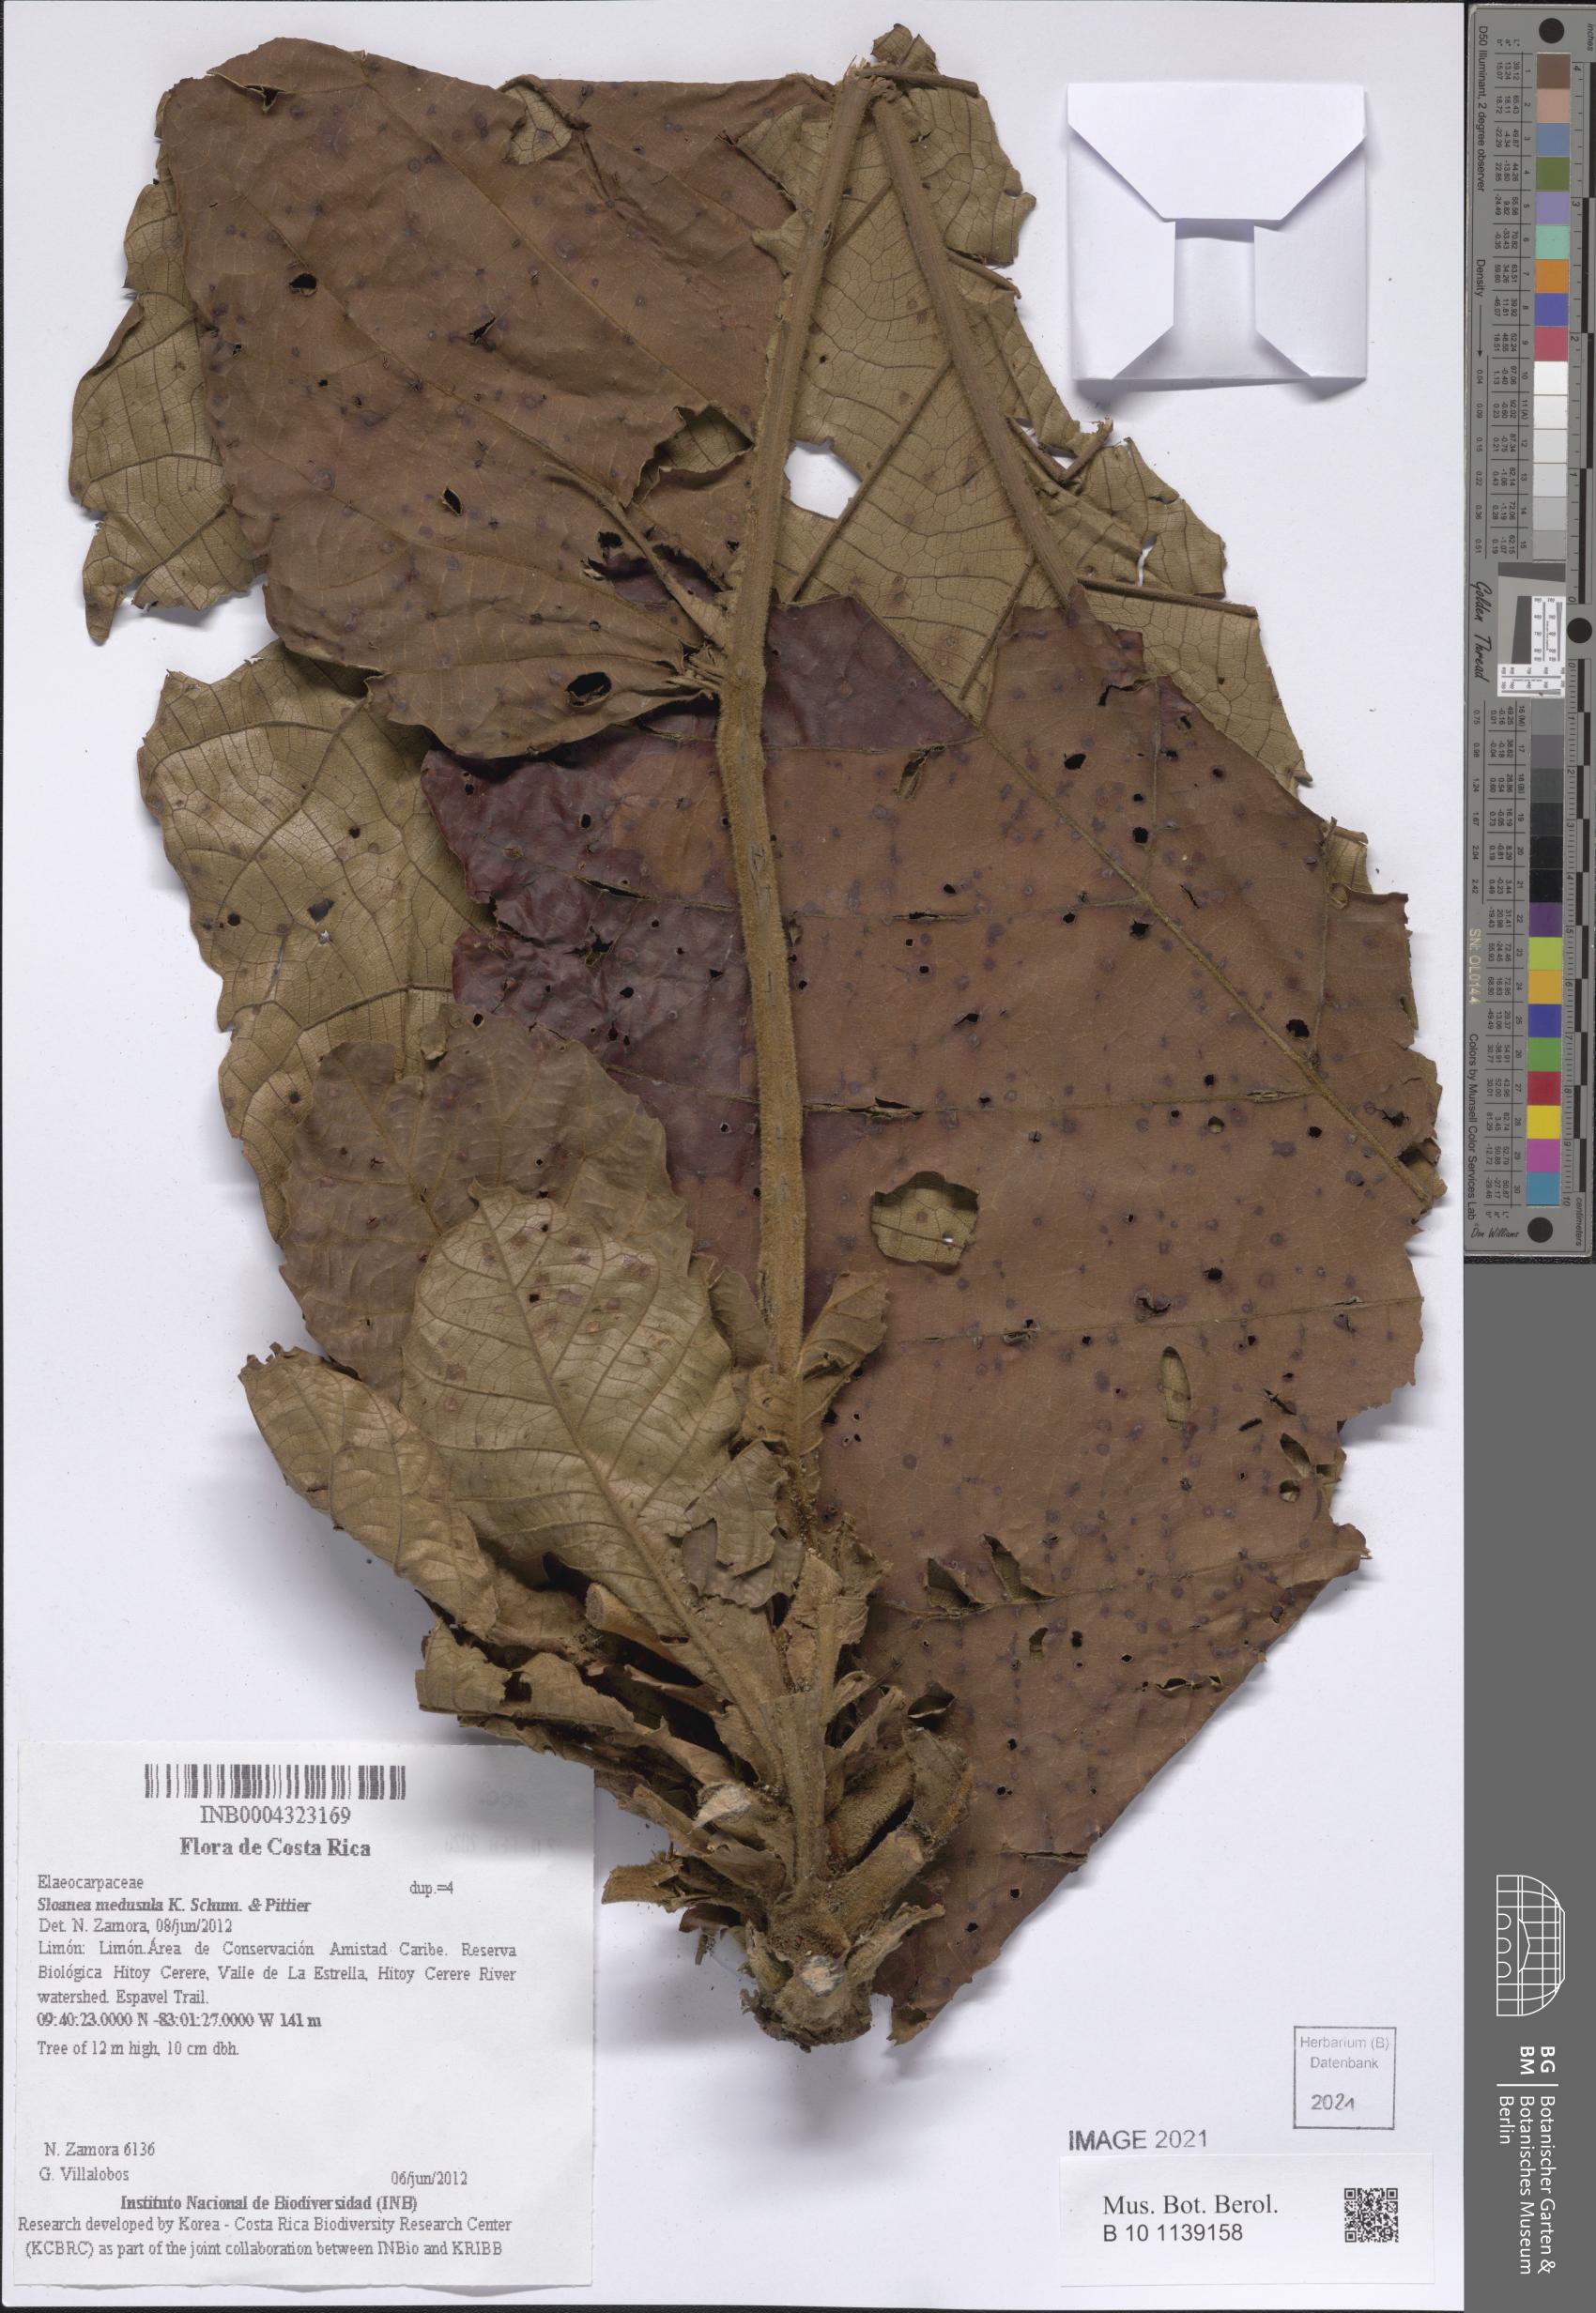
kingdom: Plantae
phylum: Tracheophyta
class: Magnoliopsida
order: Oxalidales
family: Elaeocarpaceae
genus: Sloanea
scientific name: Sloanea medusula
